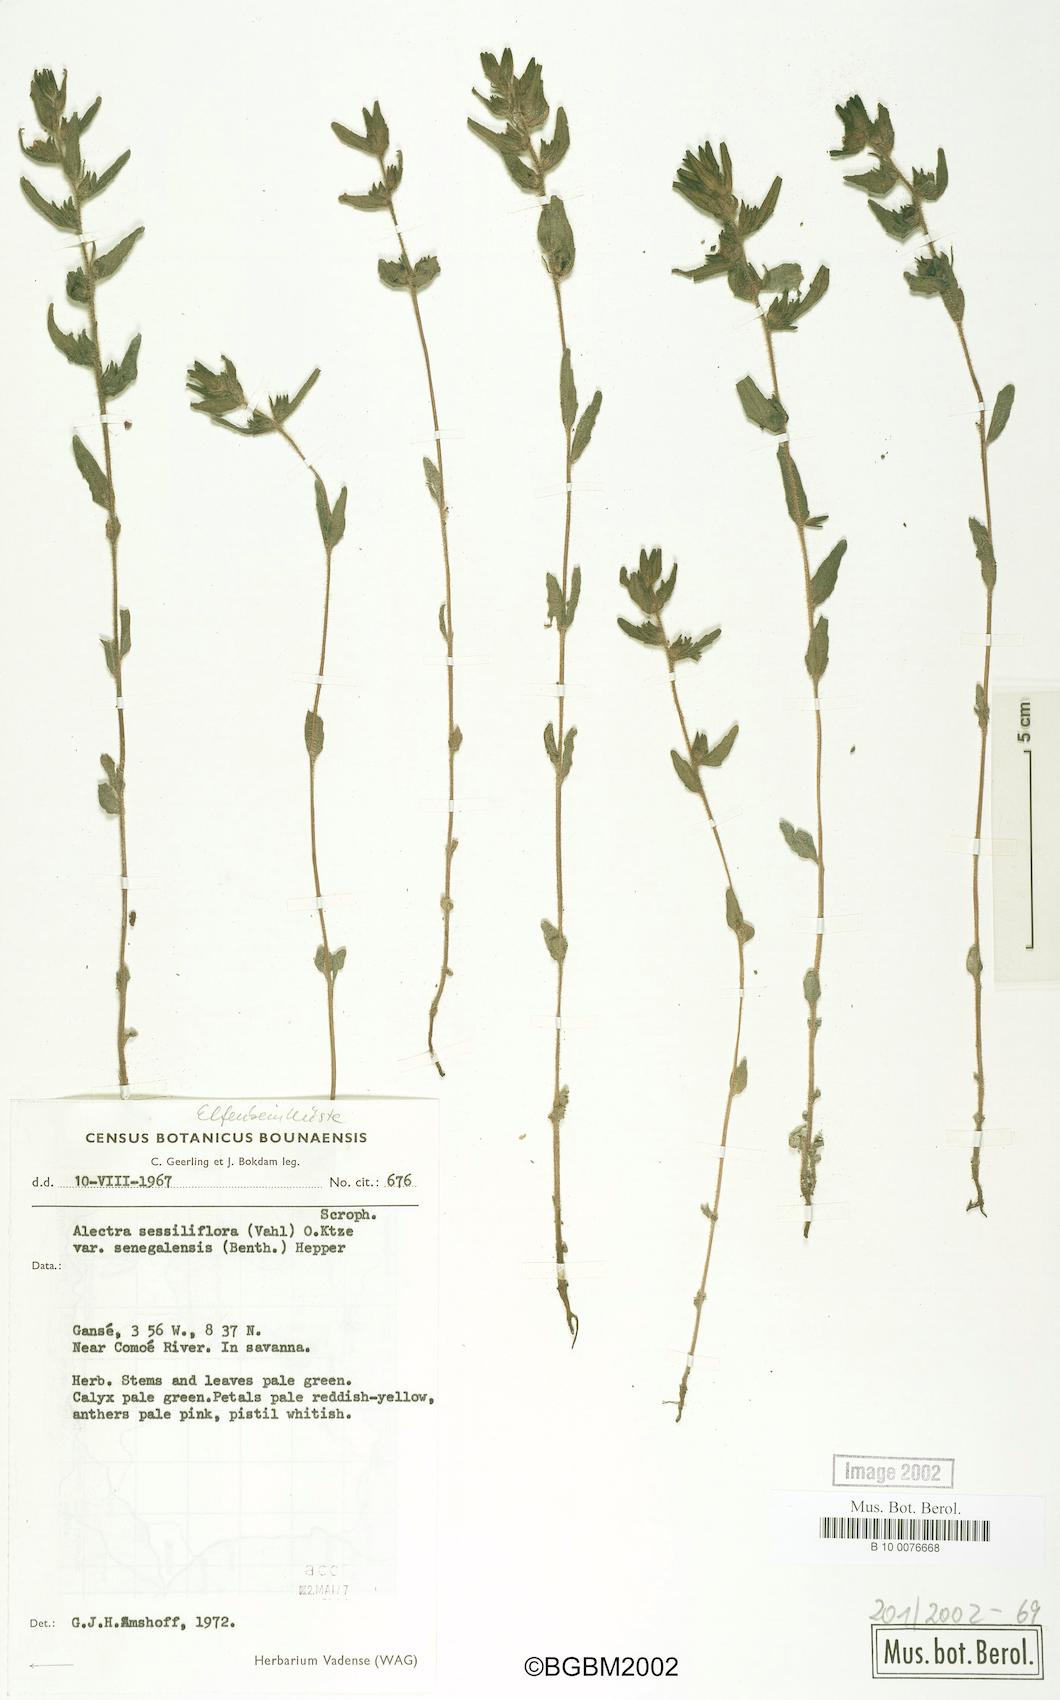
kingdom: Plantae
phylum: Tracheophyta
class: Magnoliopsida
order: Lamiales
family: Orobanchaceae
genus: Alectra
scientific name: Alectra sessiliflora
